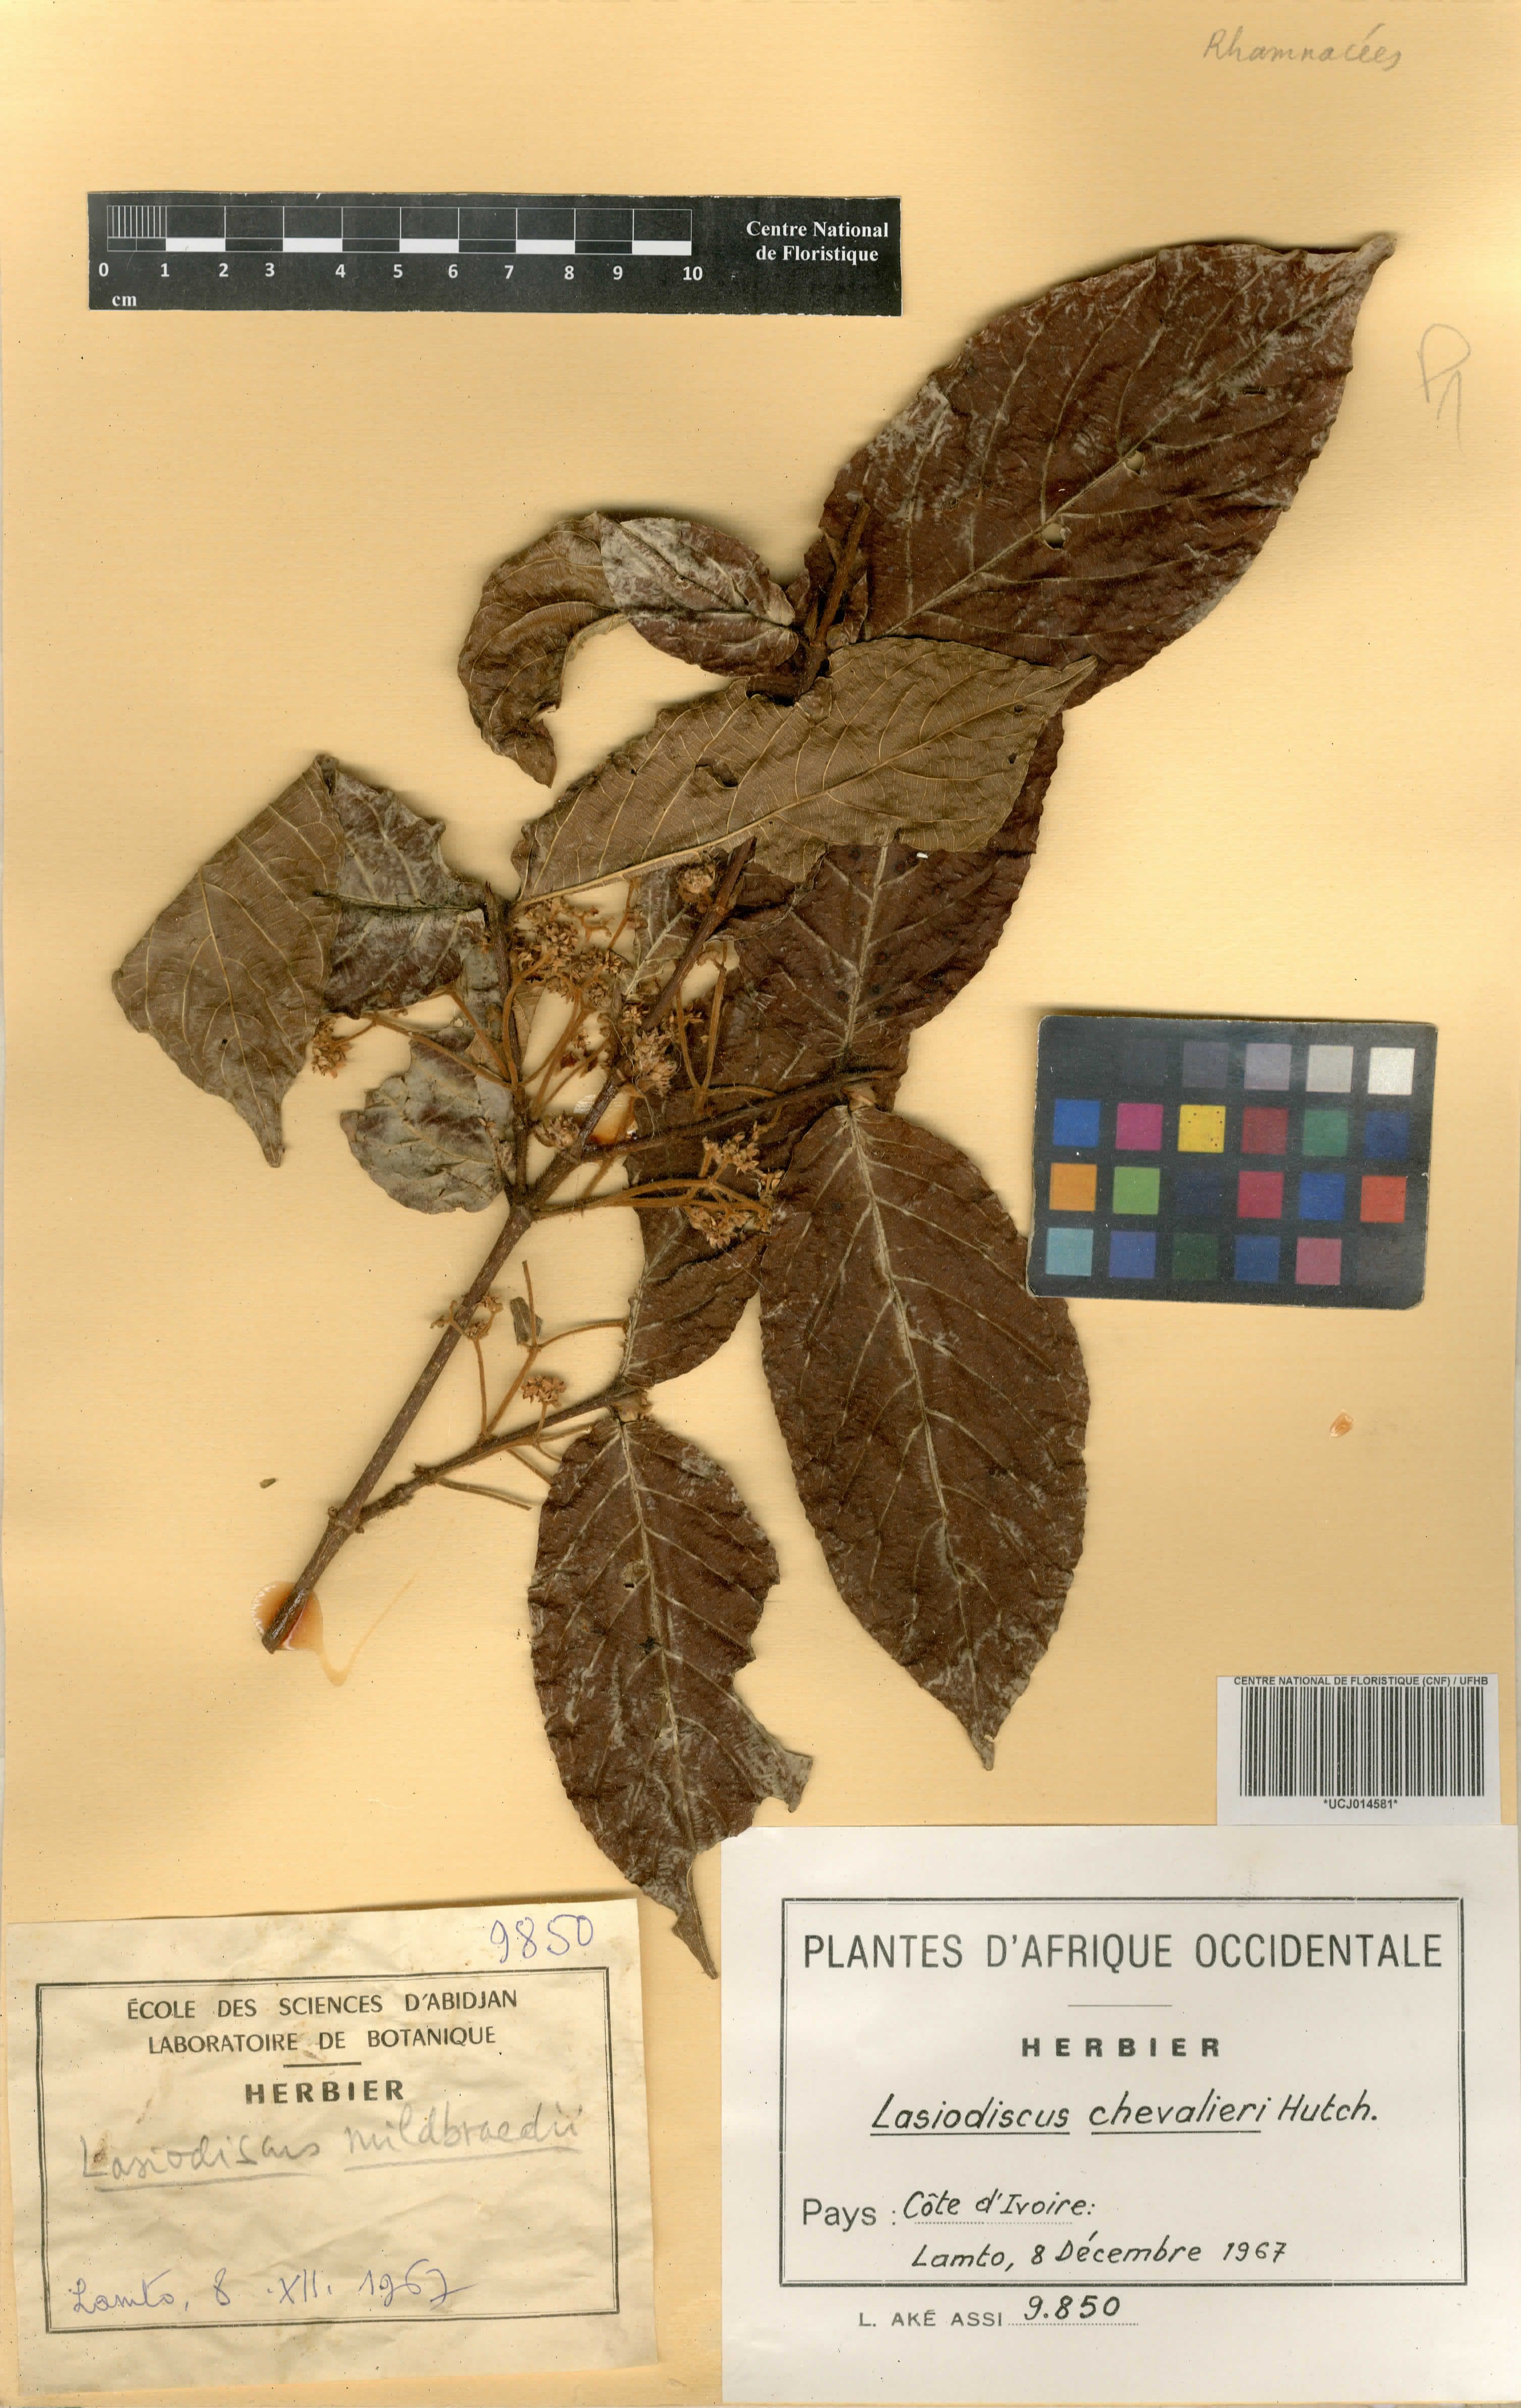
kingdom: Plantae
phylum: Tracheophyta
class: Magnoliopsida
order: Rosales
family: Rhamnaceae
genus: Lasiodiscus
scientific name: Lasiodiscus chevalieri
